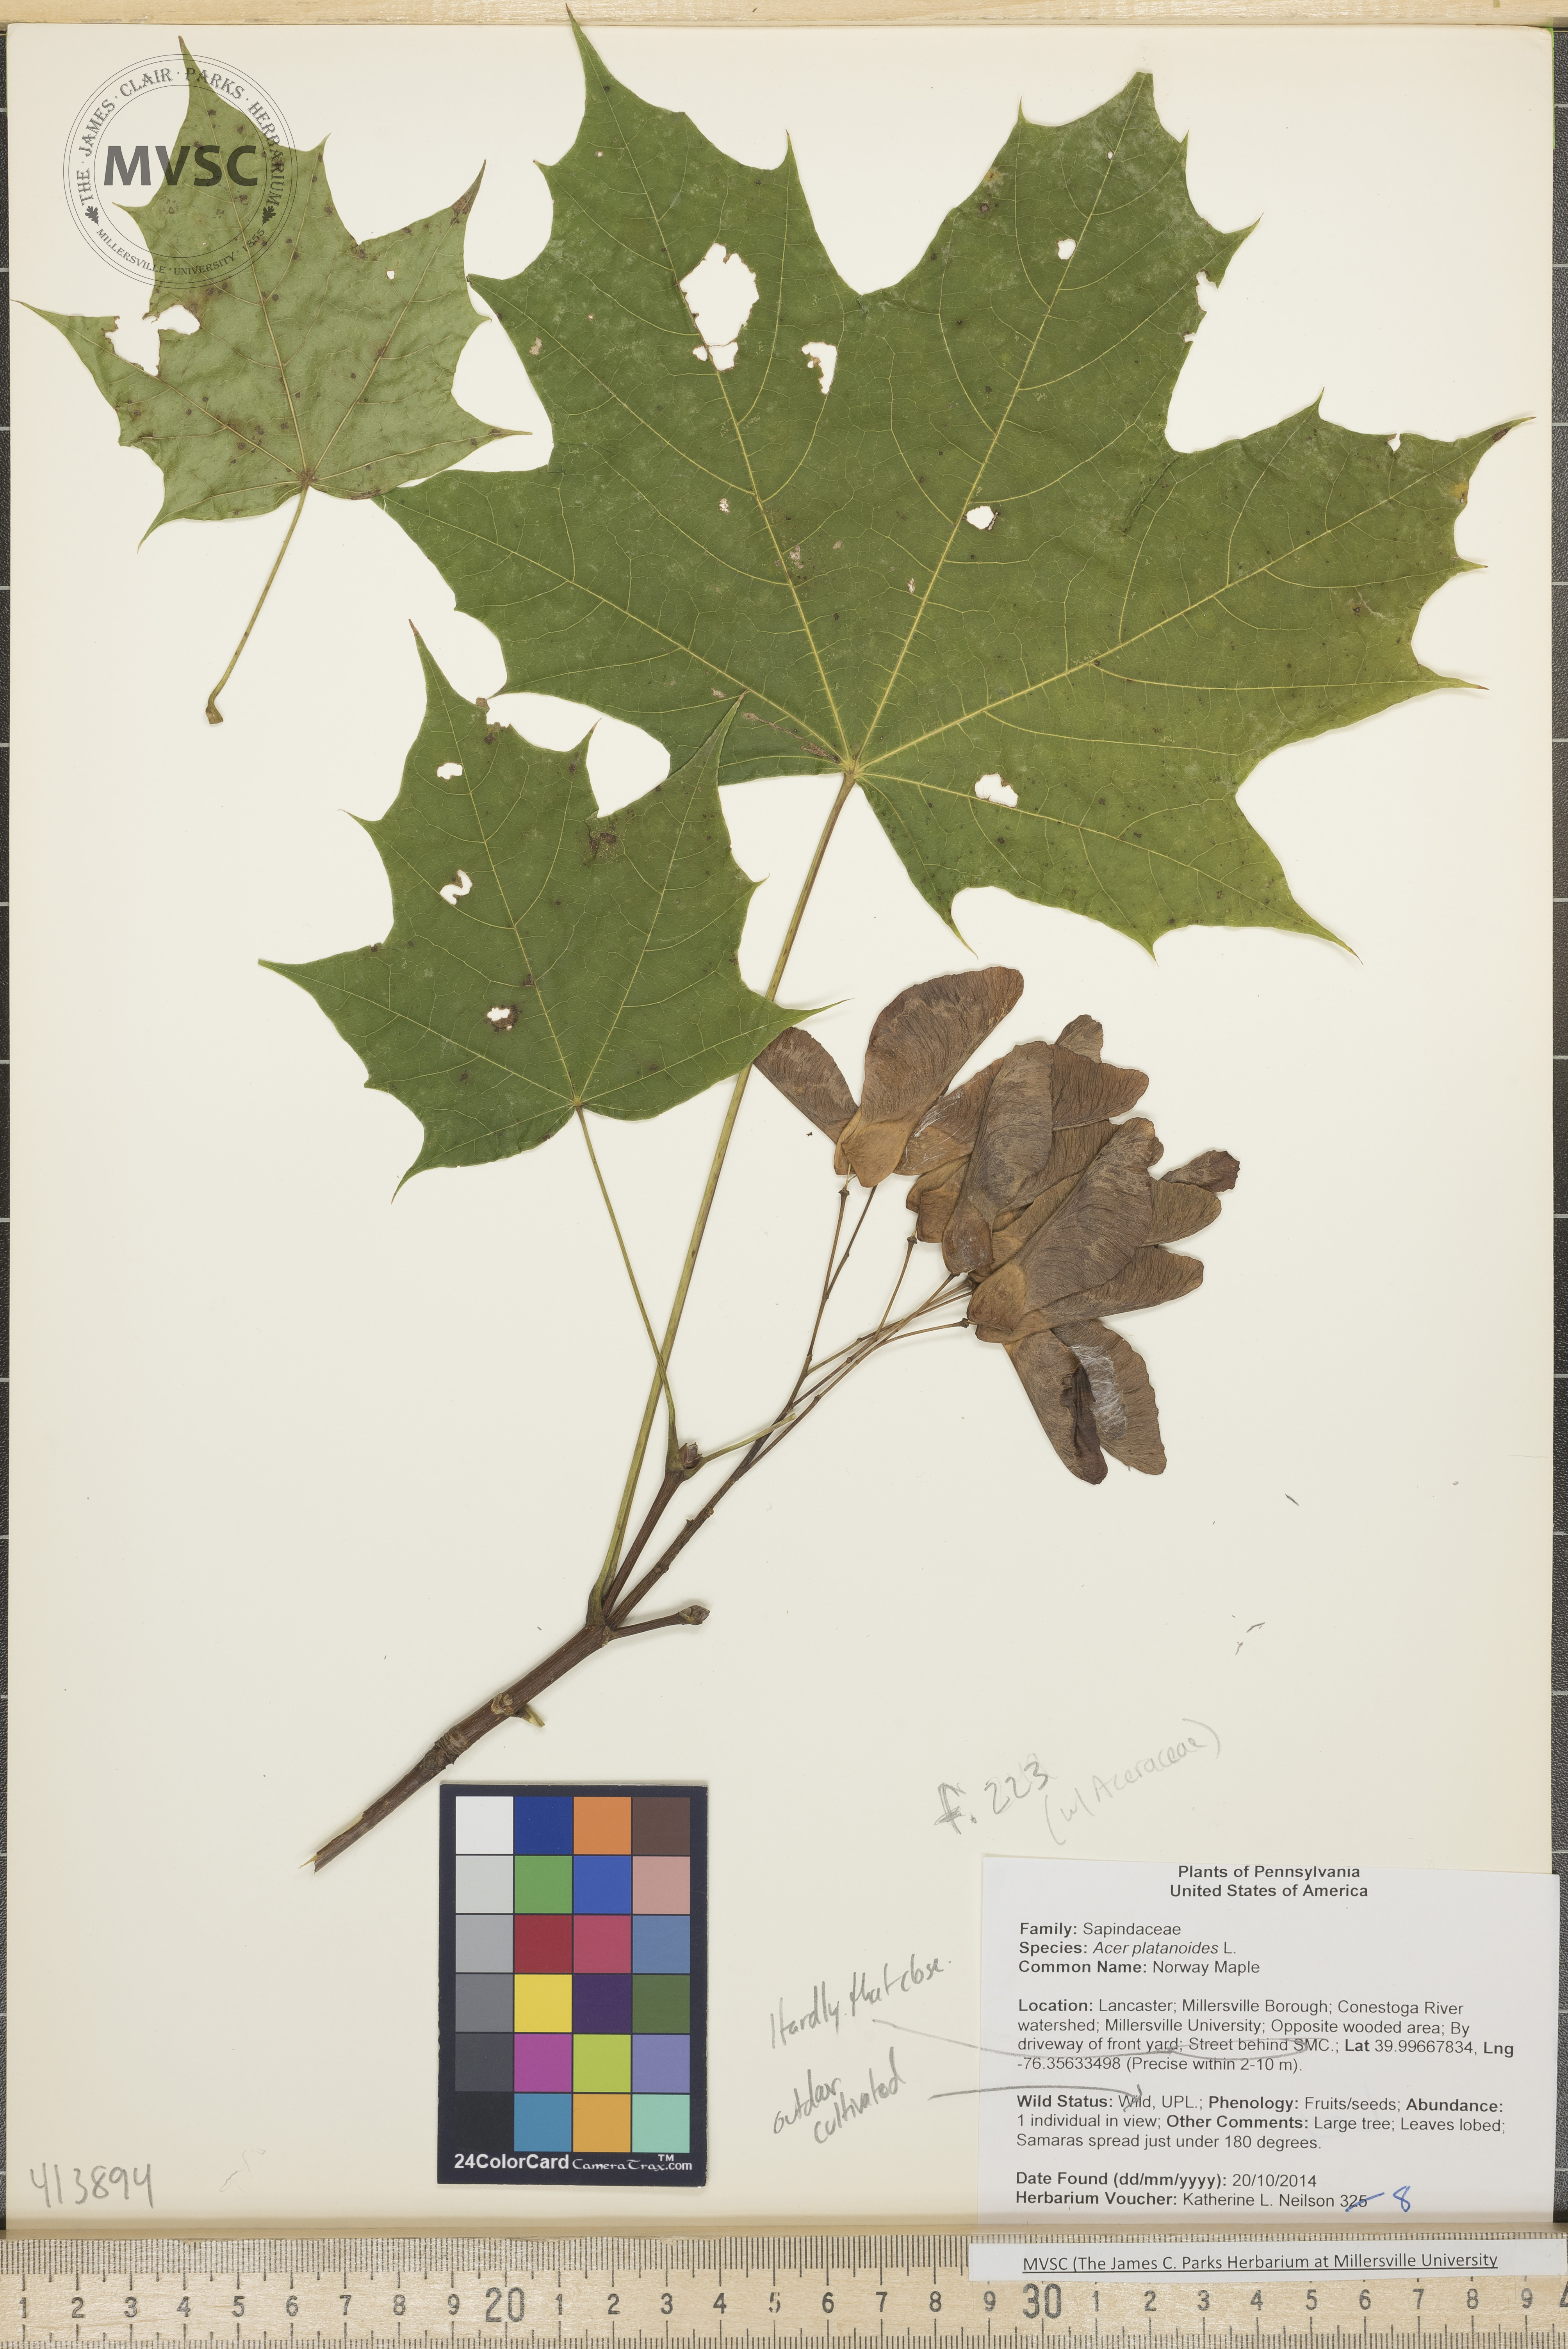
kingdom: Plantae
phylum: Tracheophyta
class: Magnoliopsida
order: Sapindales
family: Sapindaceae
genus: Acer
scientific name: Acer platanoides
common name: Norway Maple
